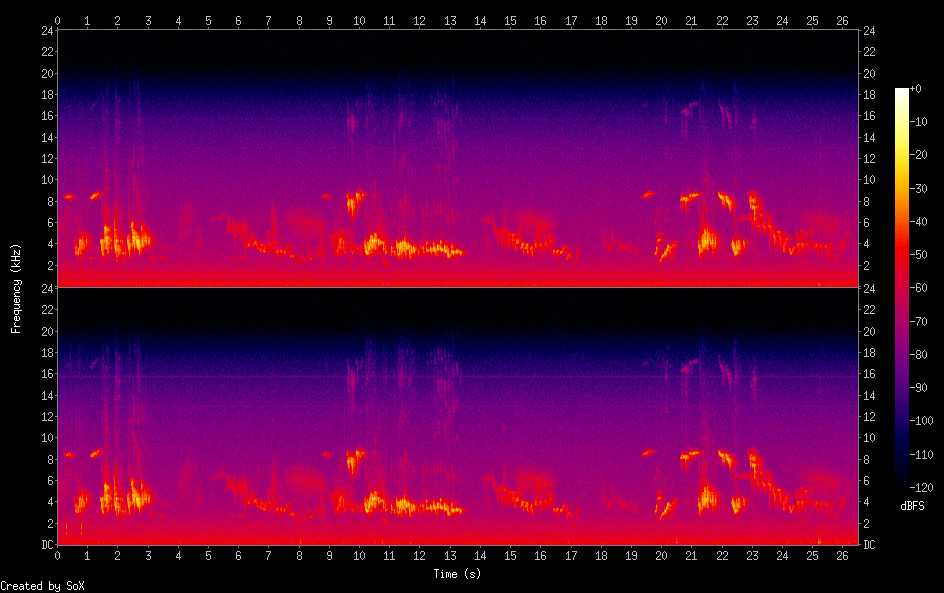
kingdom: Animalia
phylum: Chordata
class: Aves
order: Passeriformes
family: Muscicapidae
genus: Erithacus
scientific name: Erithacus rubecula
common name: European robin
